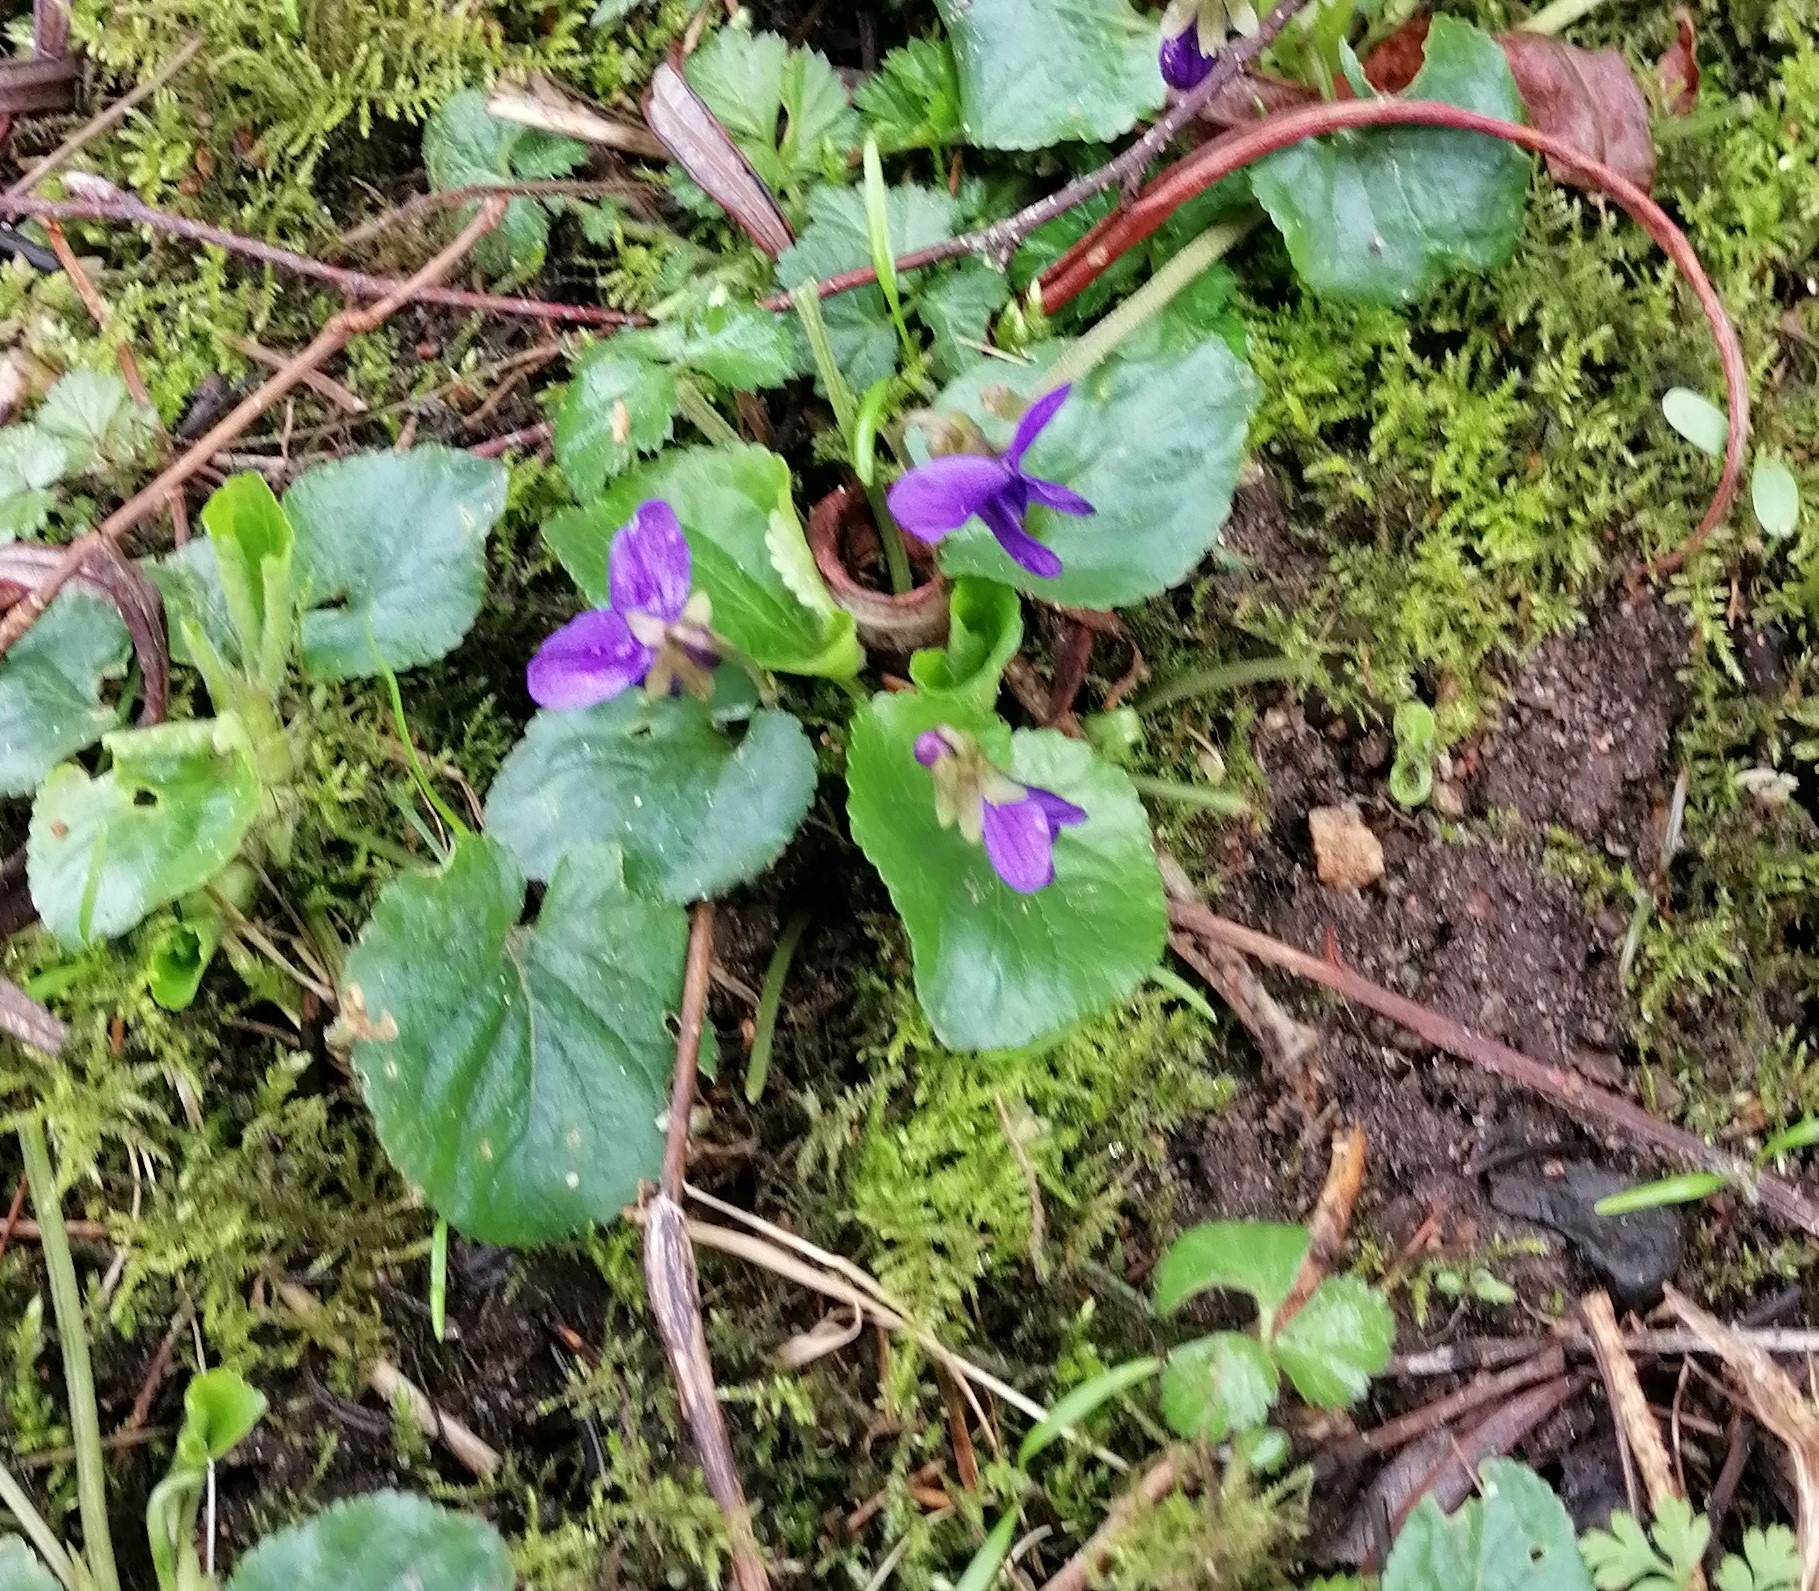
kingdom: Plantae
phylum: Tracheophyta
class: Magnoliopsida
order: Malpighiales
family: Violaceae
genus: Viola
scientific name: Viola odorata
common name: Marts-viol
